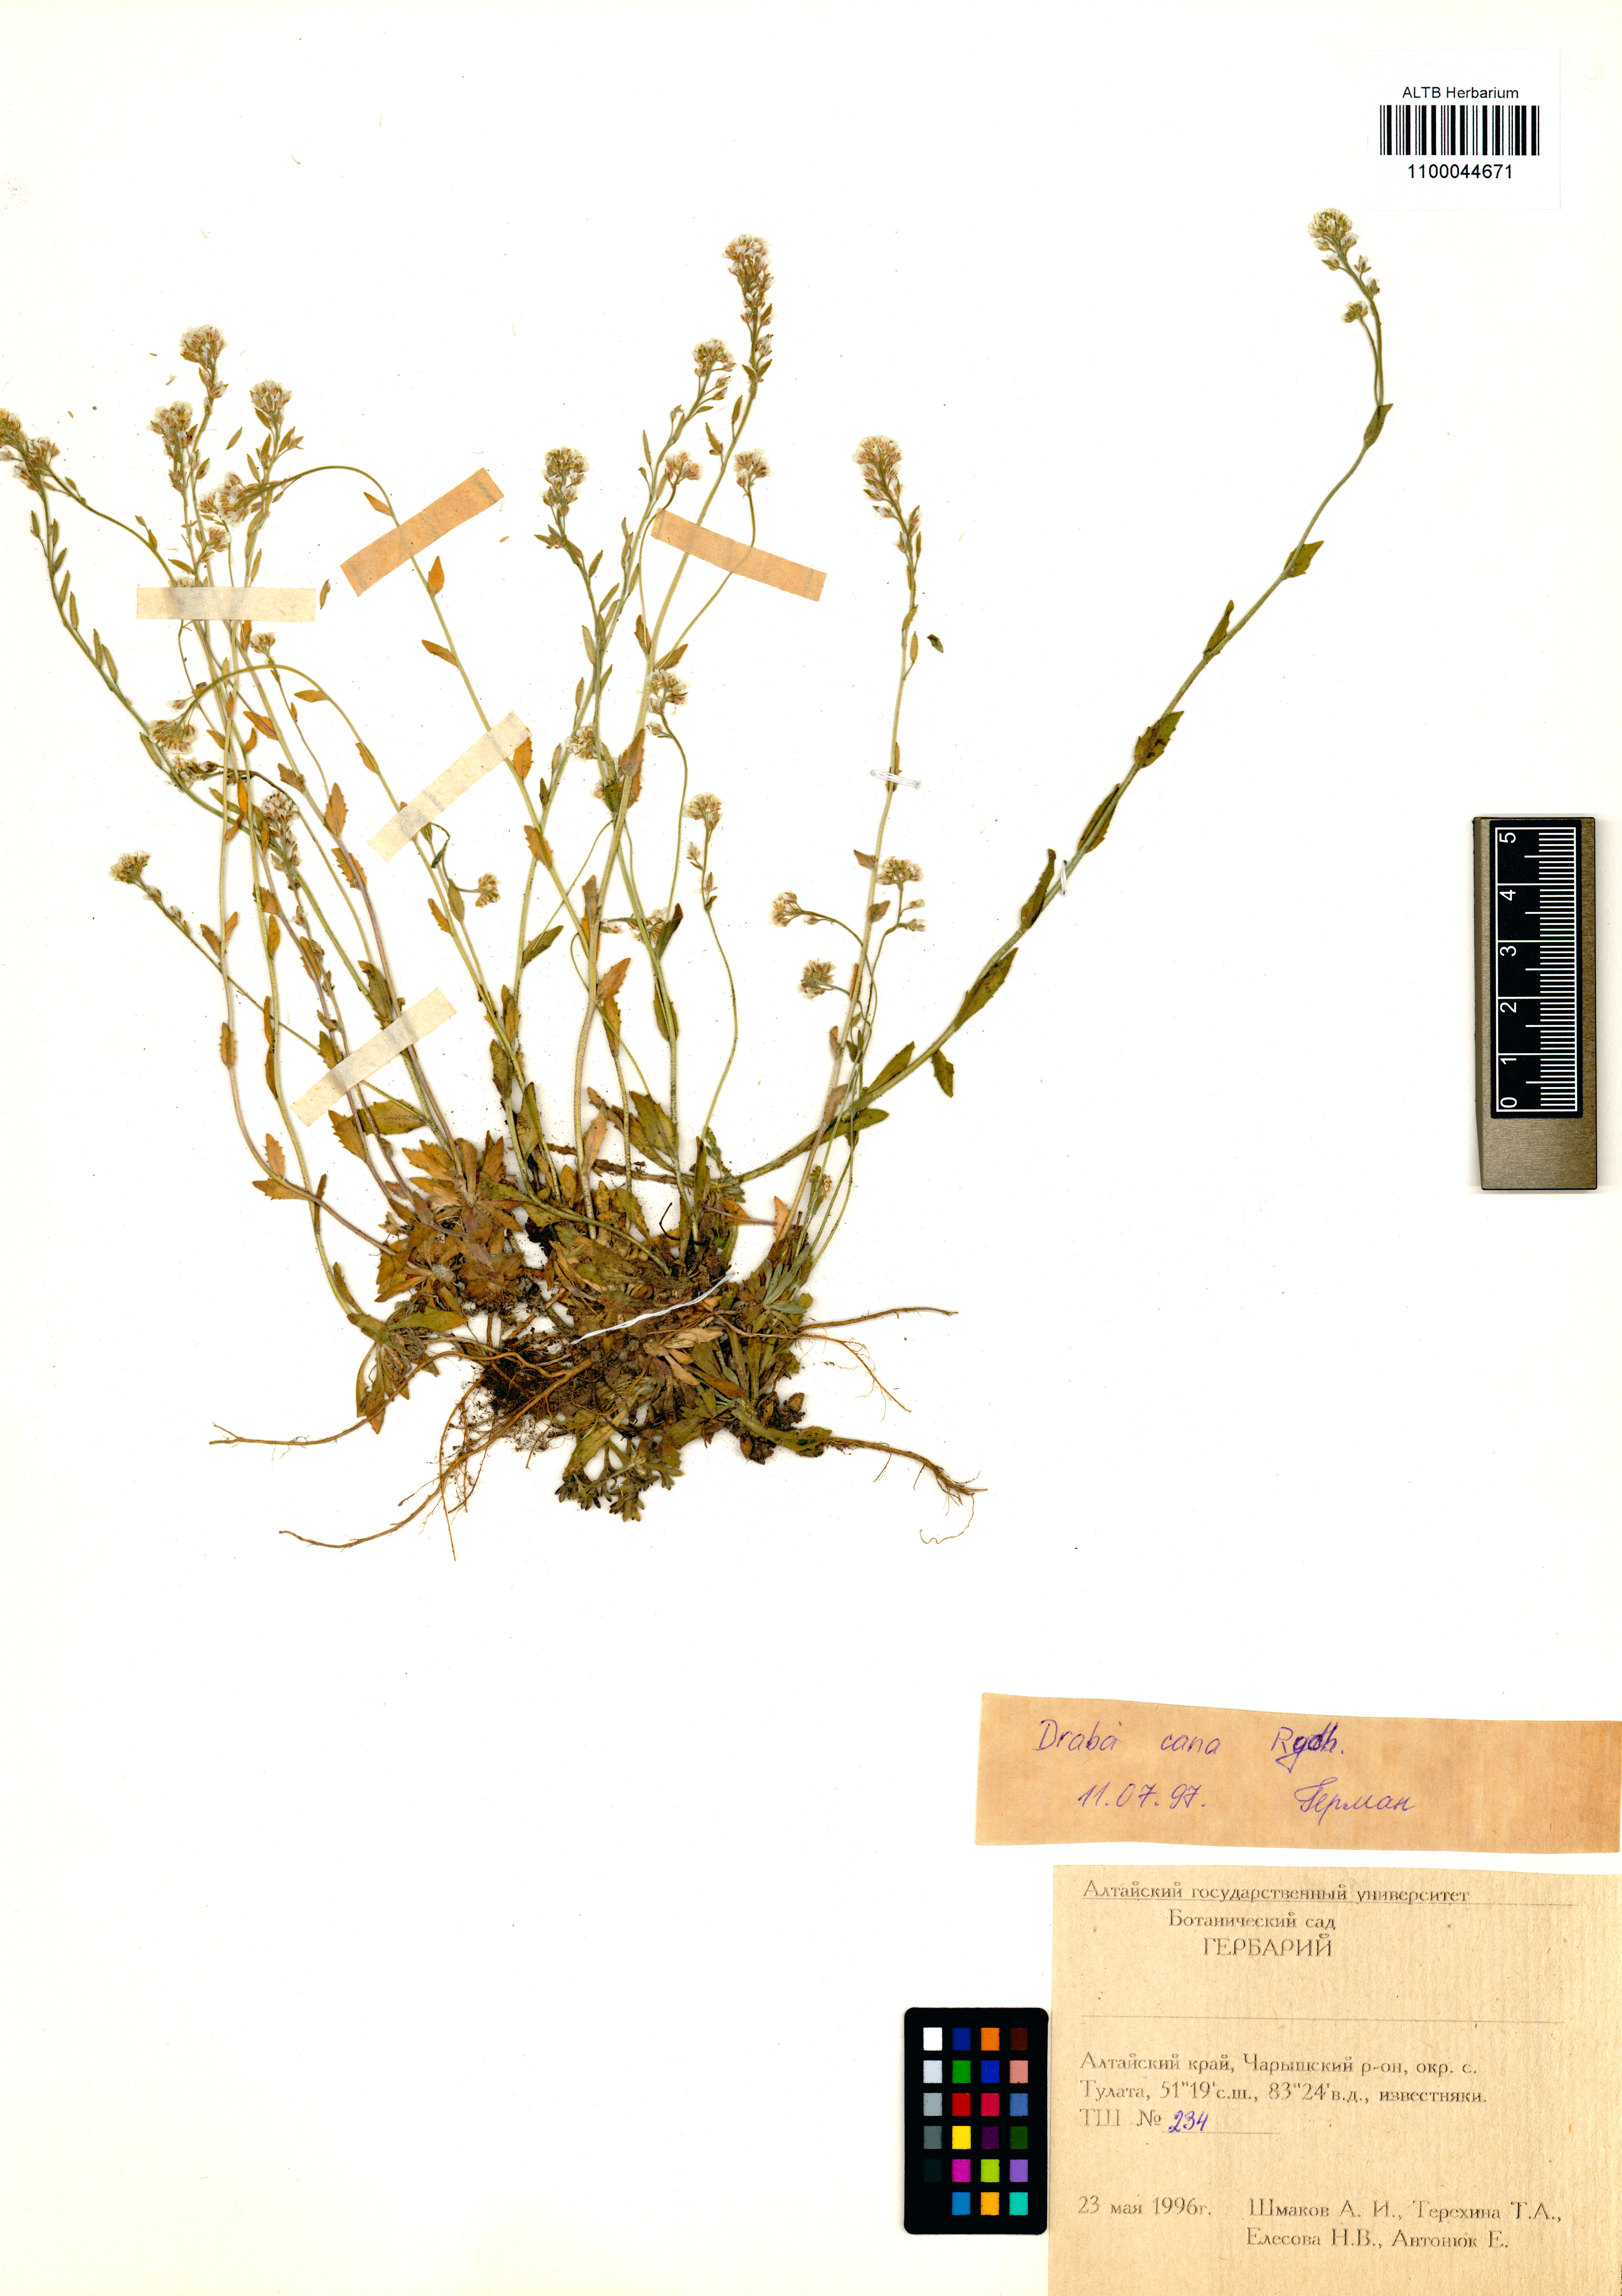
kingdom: Plantae
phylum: Tracheophyta
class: Magnoliopsida
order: Brassicales
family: Brassicaceae
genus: Draba
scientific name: Draba cana
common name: Hoary draba
